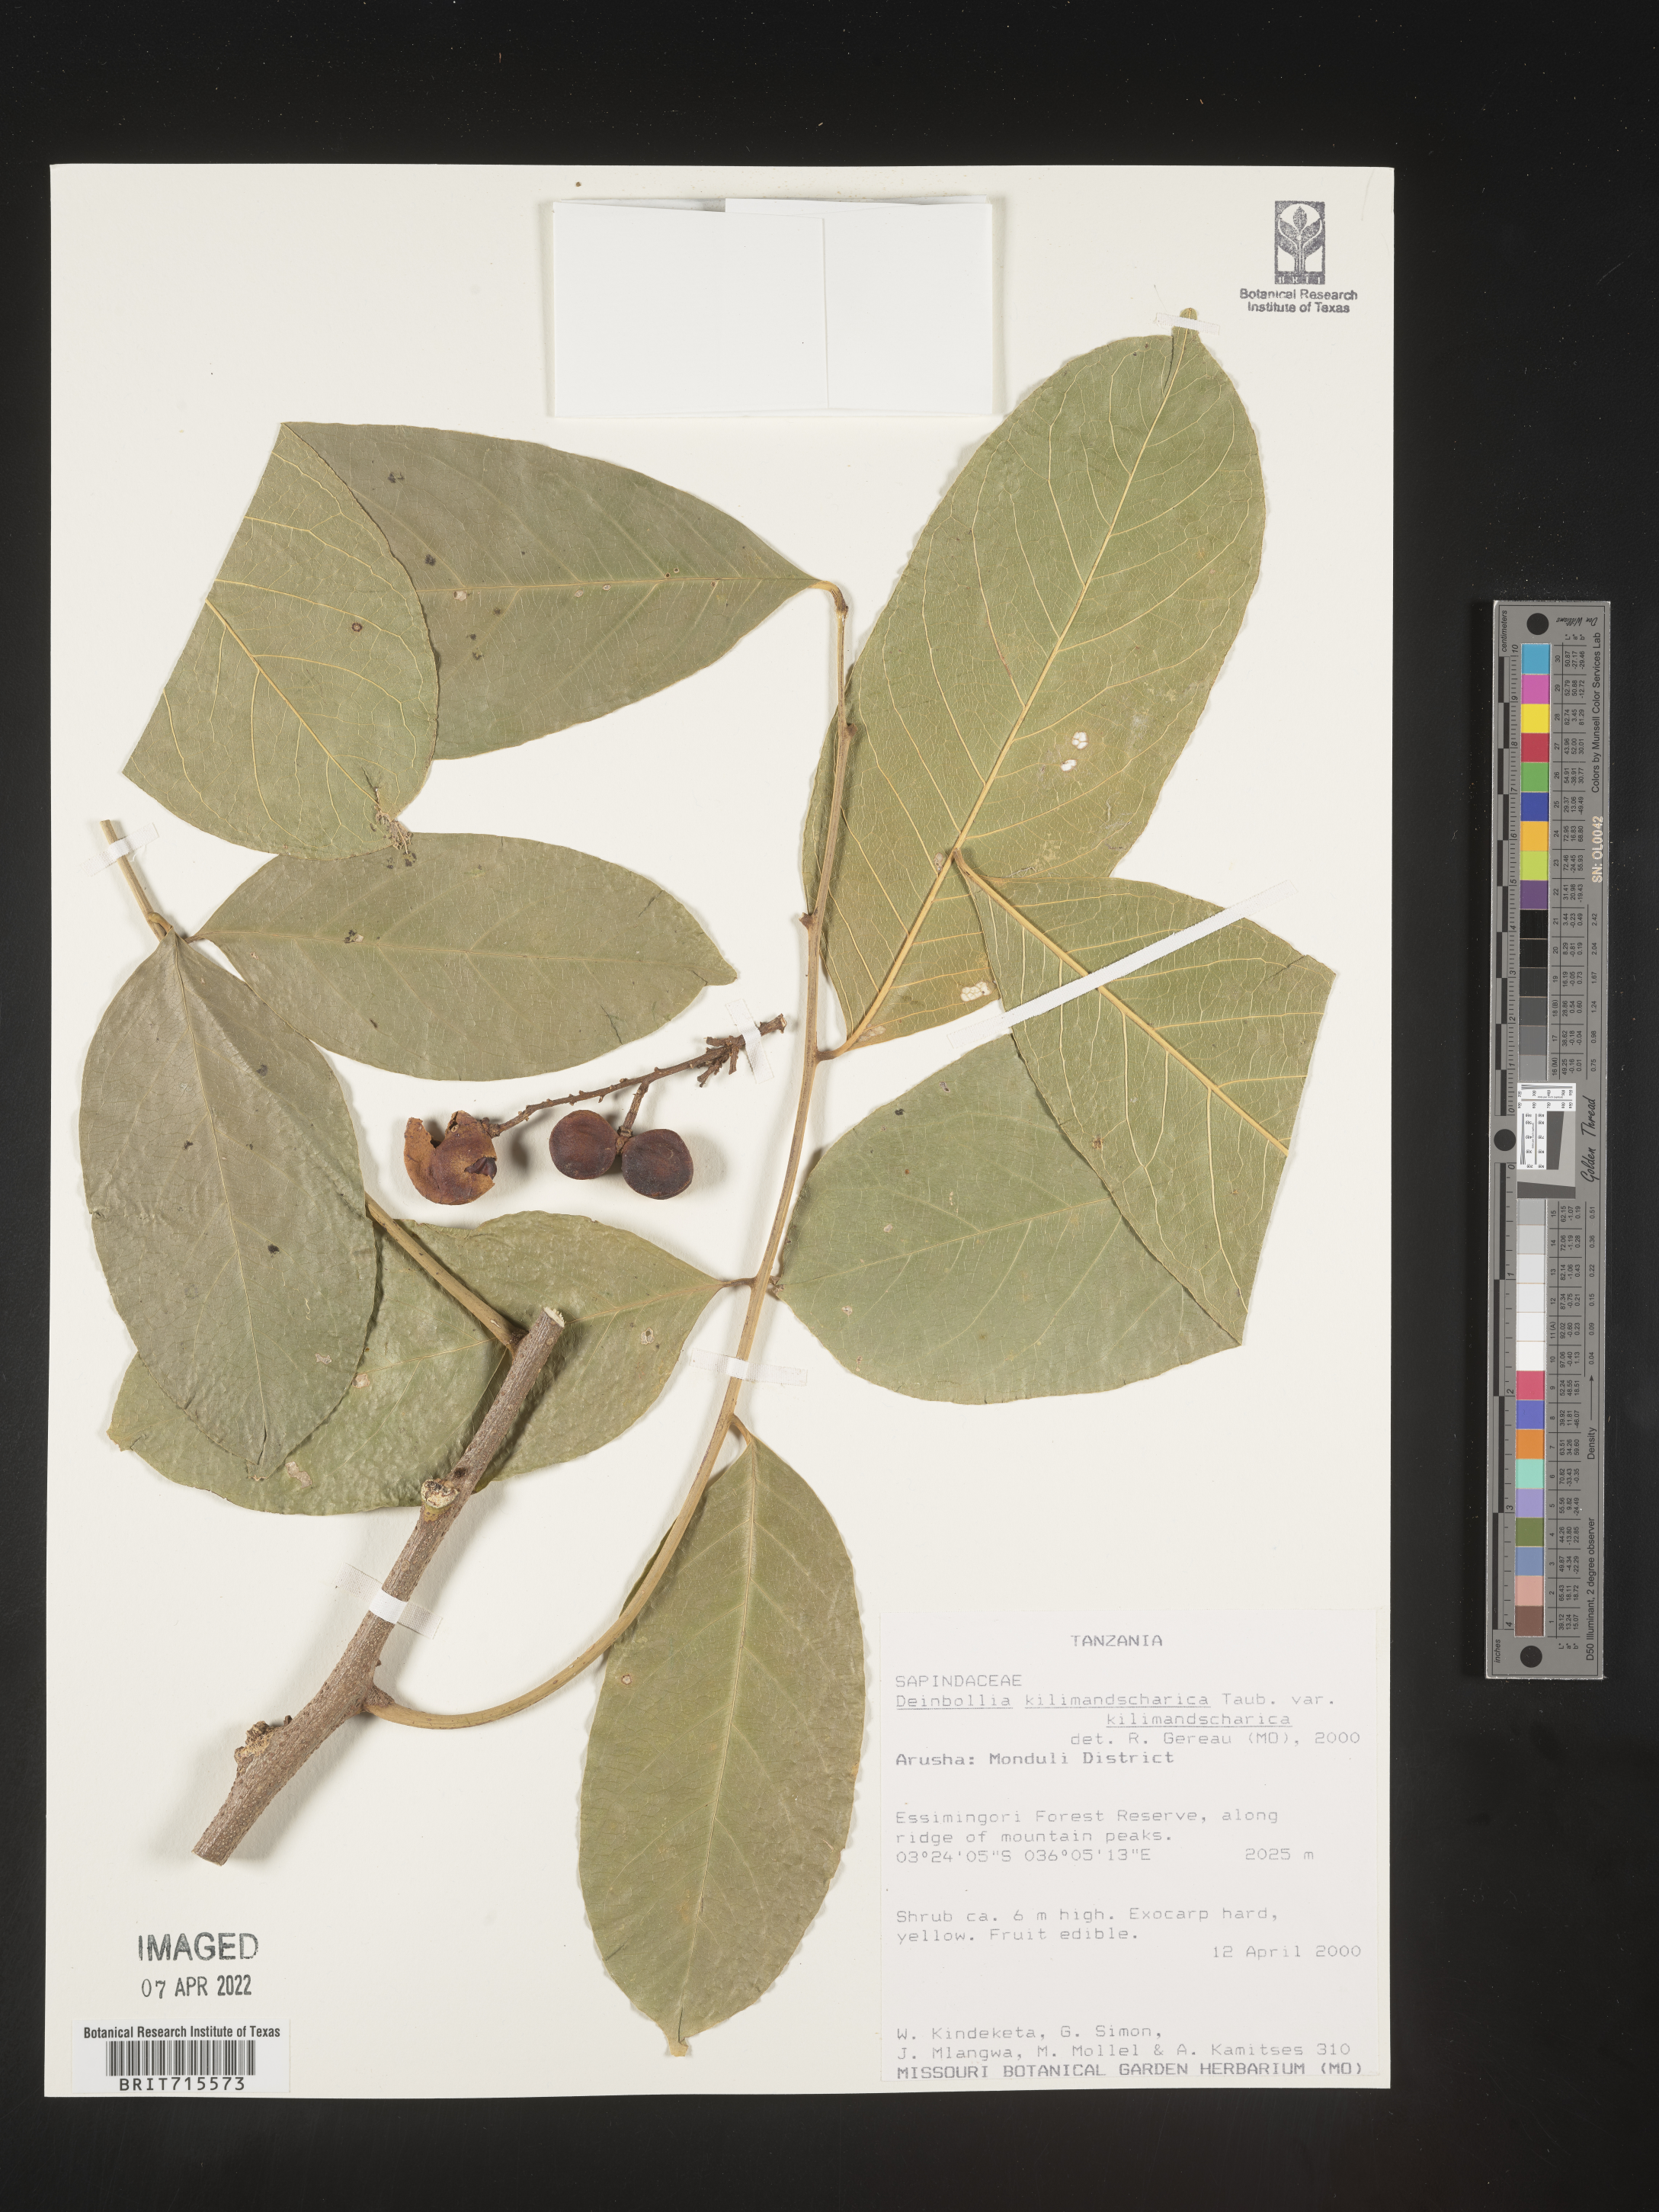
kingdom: Plantae
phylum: Tracheophyta
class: Magnoliopsida
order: Sapindales
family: Sapindaceae
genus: Deinbollia
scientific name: Deinbollia
